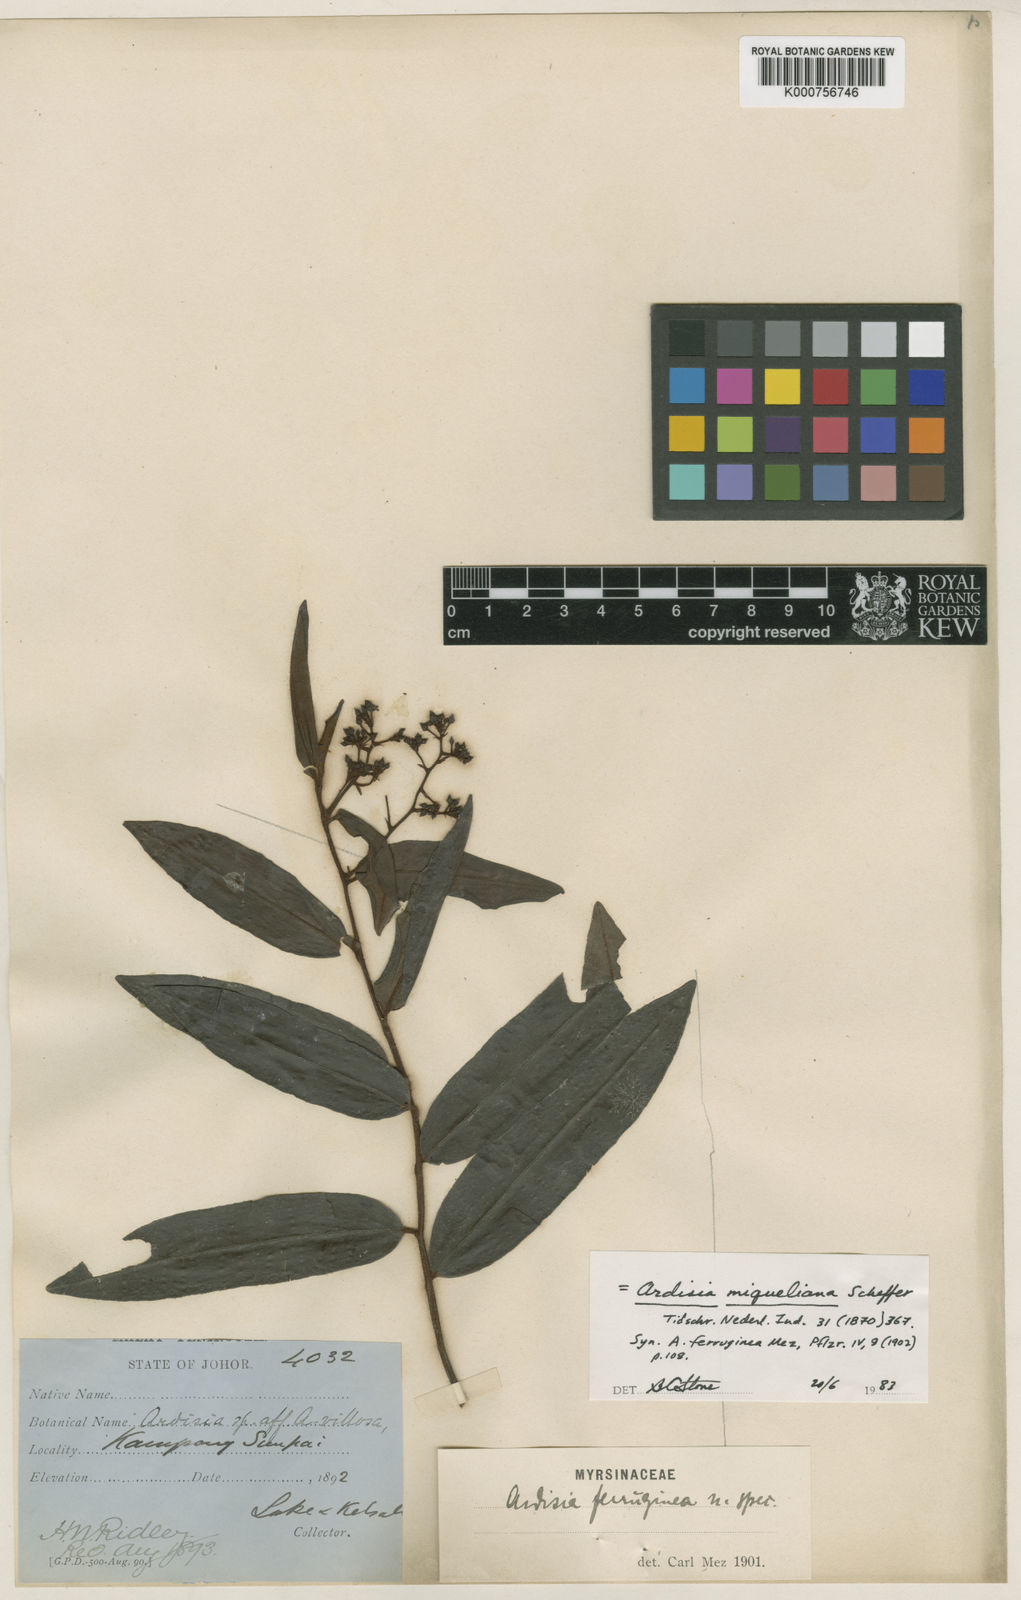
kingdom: Plantae
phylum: Tracheophyta
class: Magnoliopsida
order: Ericales
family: Primulaceae
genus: Ardisia
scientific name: Ardisia rudis
